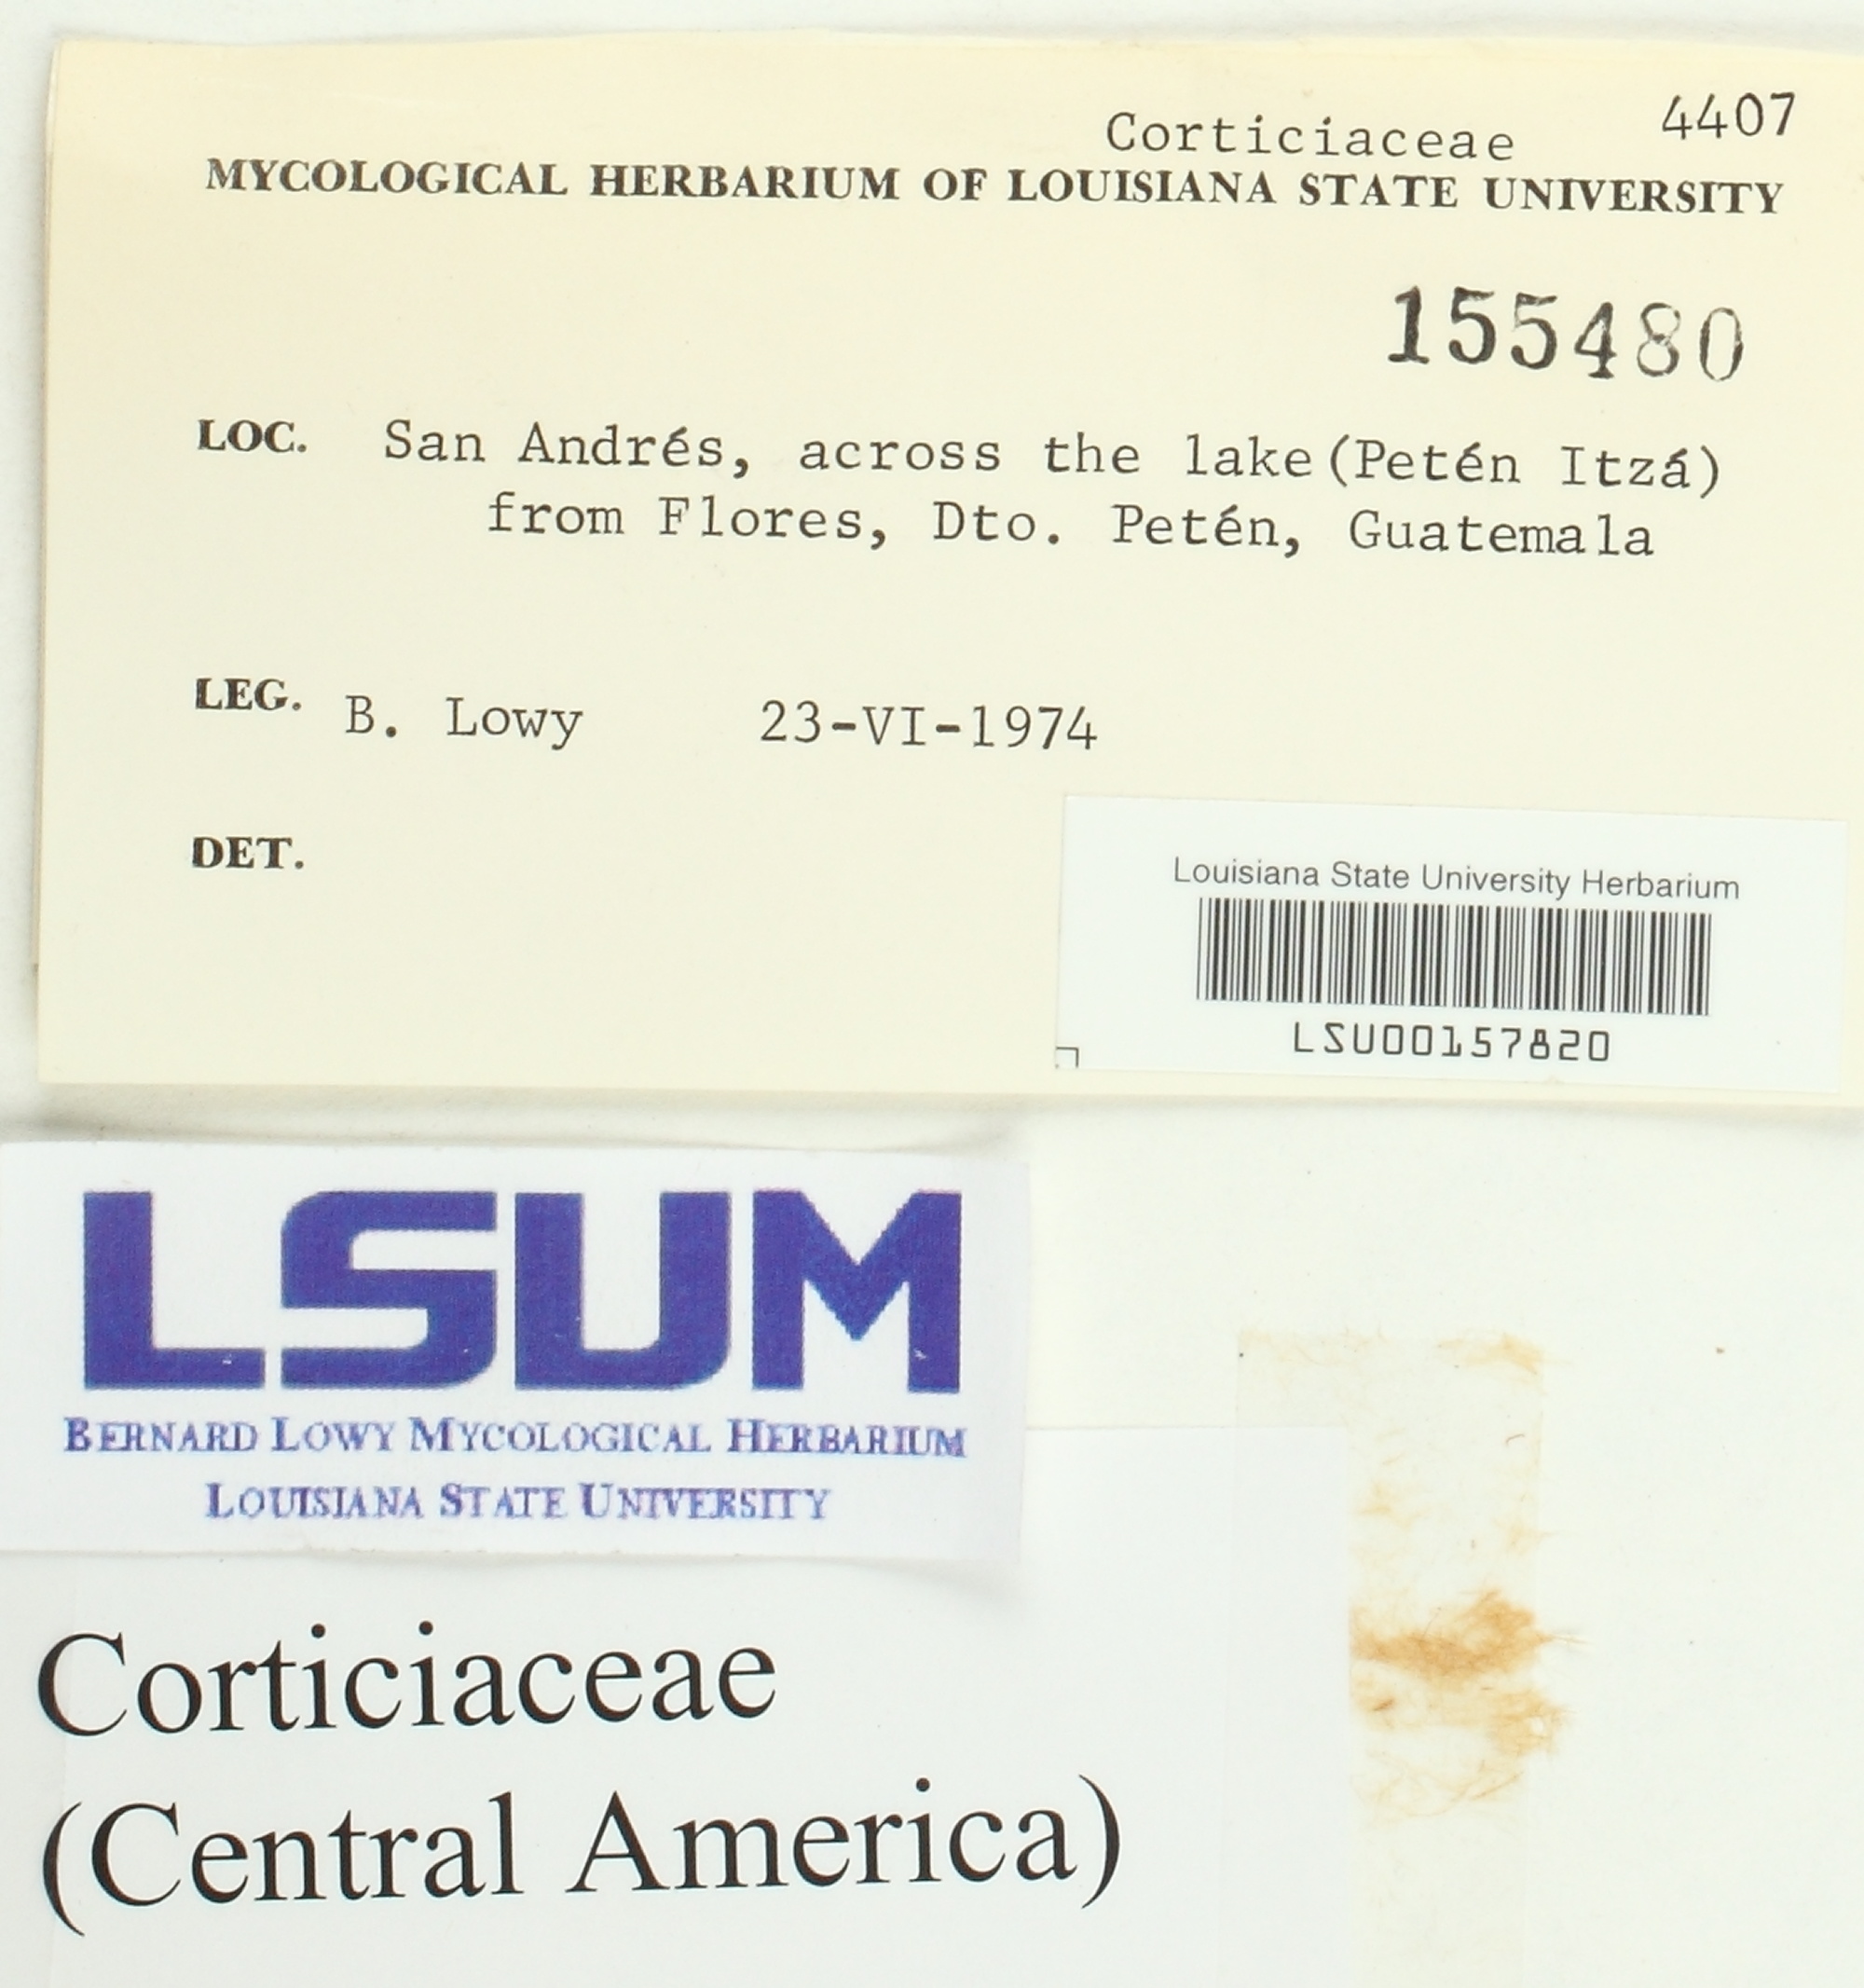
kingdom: Fungi
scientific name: Fungi
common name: Fungi
